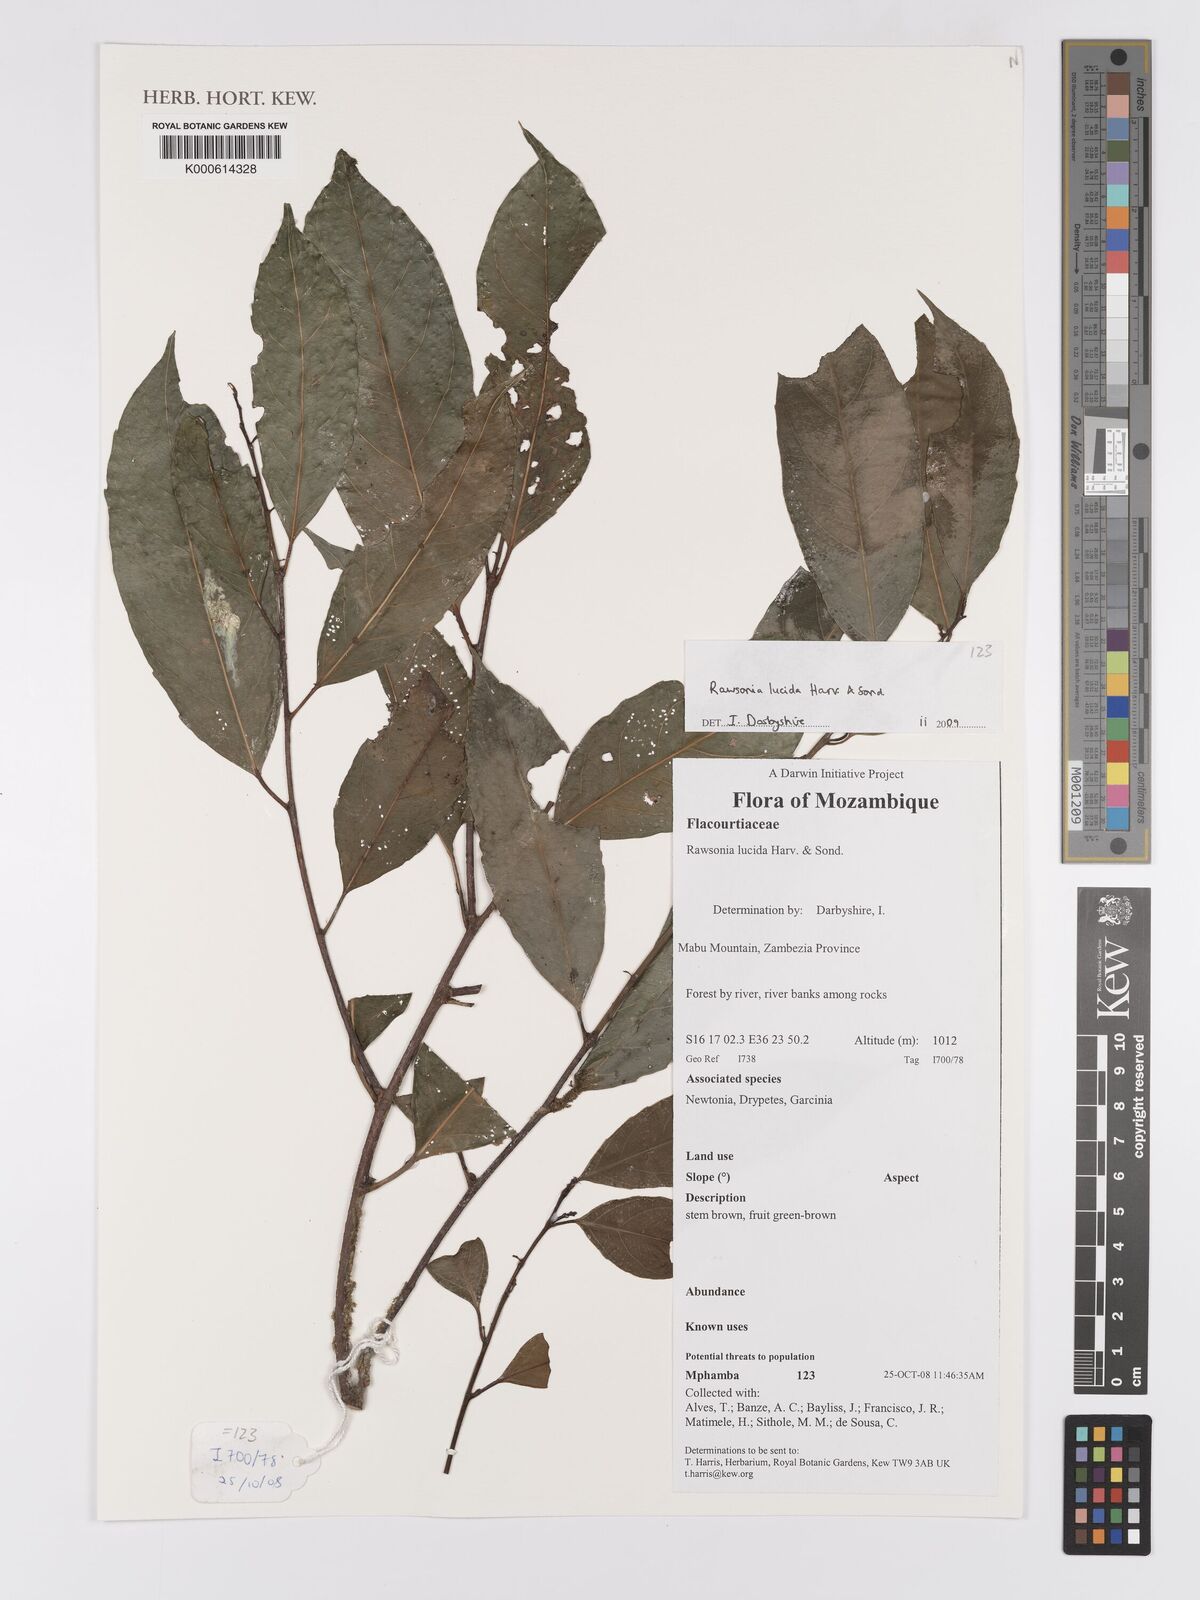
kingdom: Plantae
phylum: Tracheophyta
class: Magnoliopsida
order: Malpighiales
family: Achariaceae
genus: Rawsonia
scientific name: Rawsonia lucida
